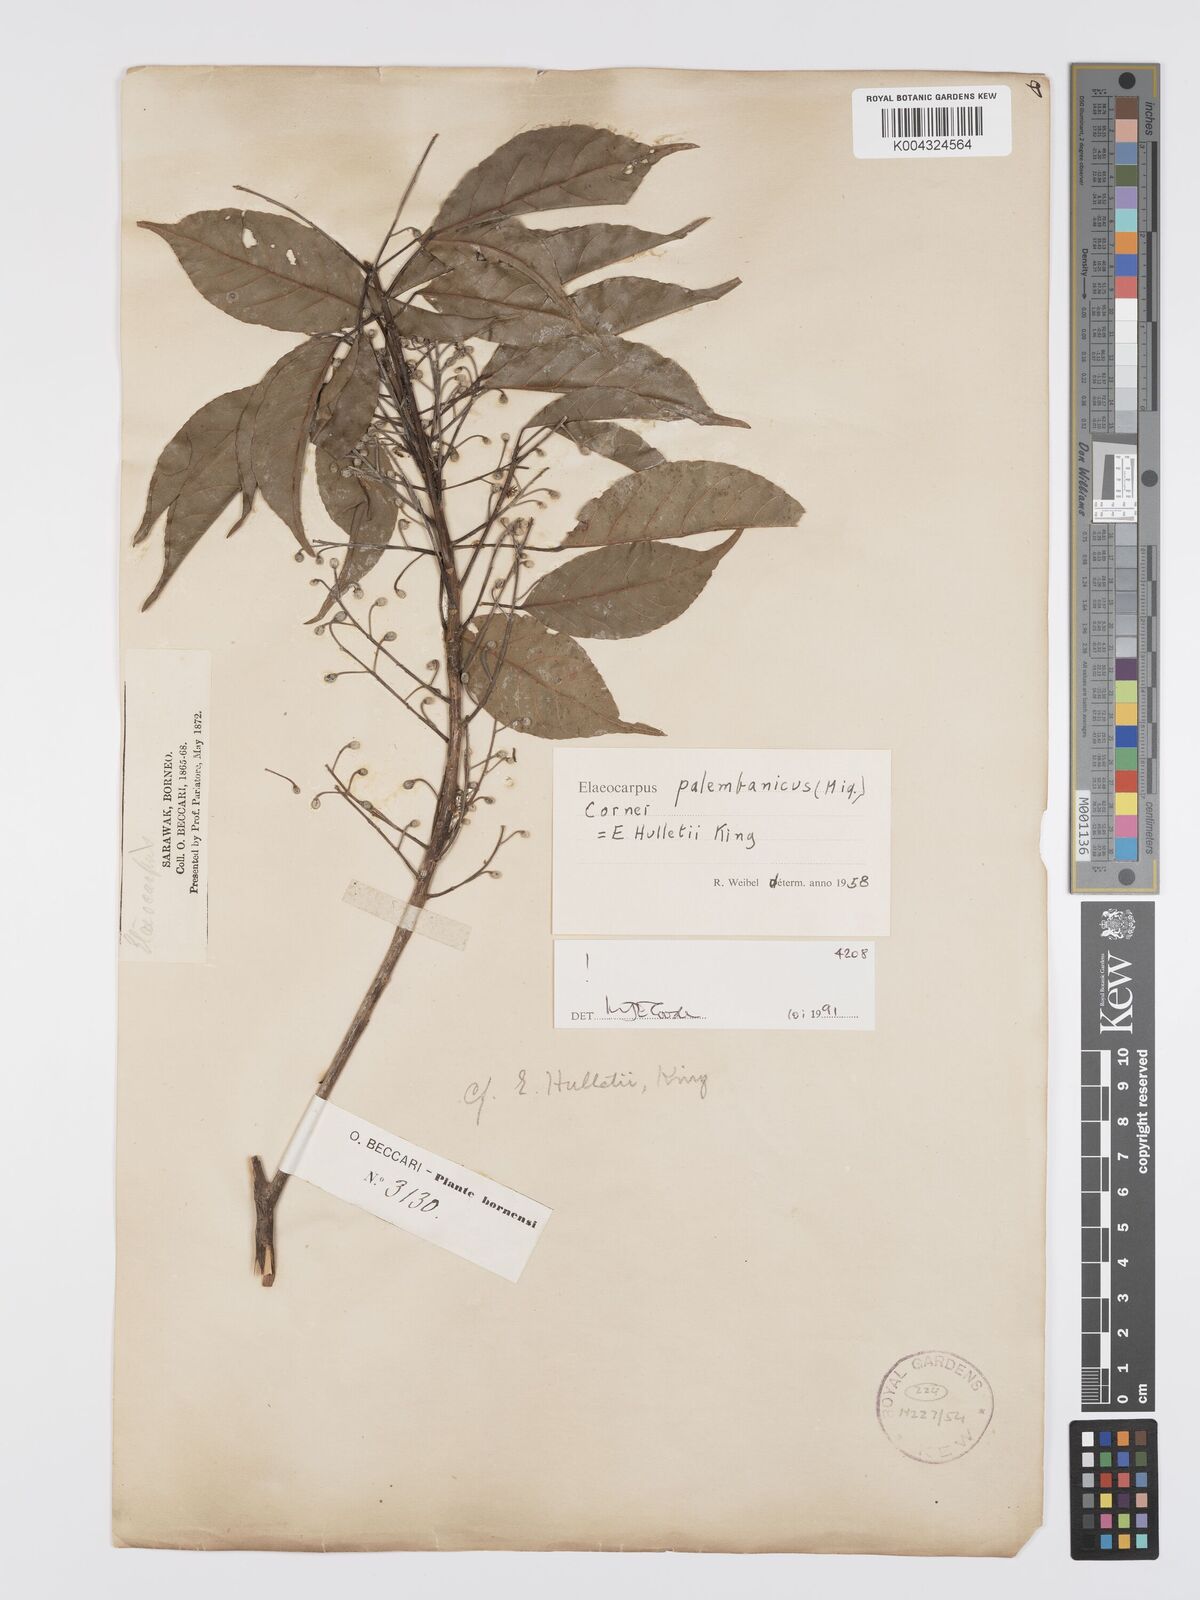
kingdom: Plantae
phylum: Tracheophyta
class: Magnoliopsida
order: Oxalidales
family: Elaeocarpaceae
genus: Elaeocarpus
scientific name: Elaeocarpus palembanicus
